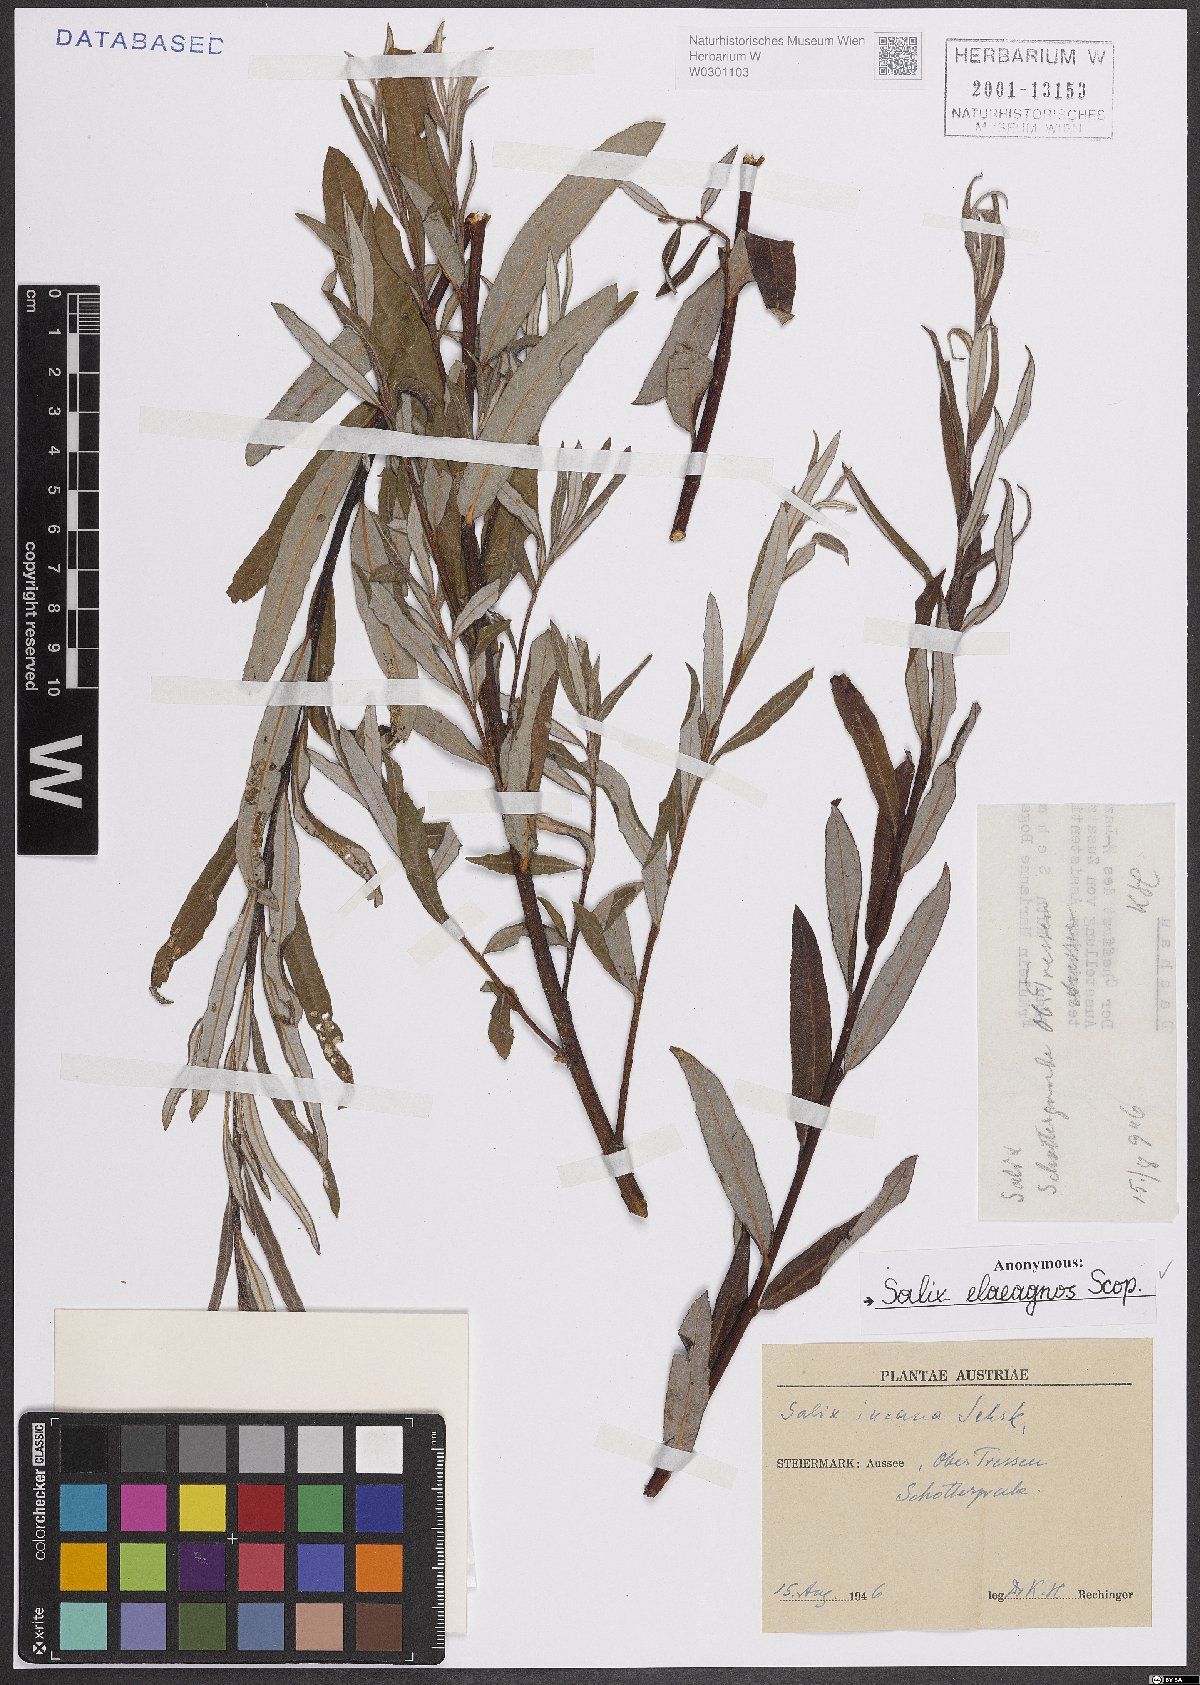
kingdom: Plantae
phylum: Tracheophyta
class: Magnoliopsida
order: Malpighiales
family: Salicaceae
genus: Salix
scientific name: Salix eleagnos
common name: Elaeagnus willow
